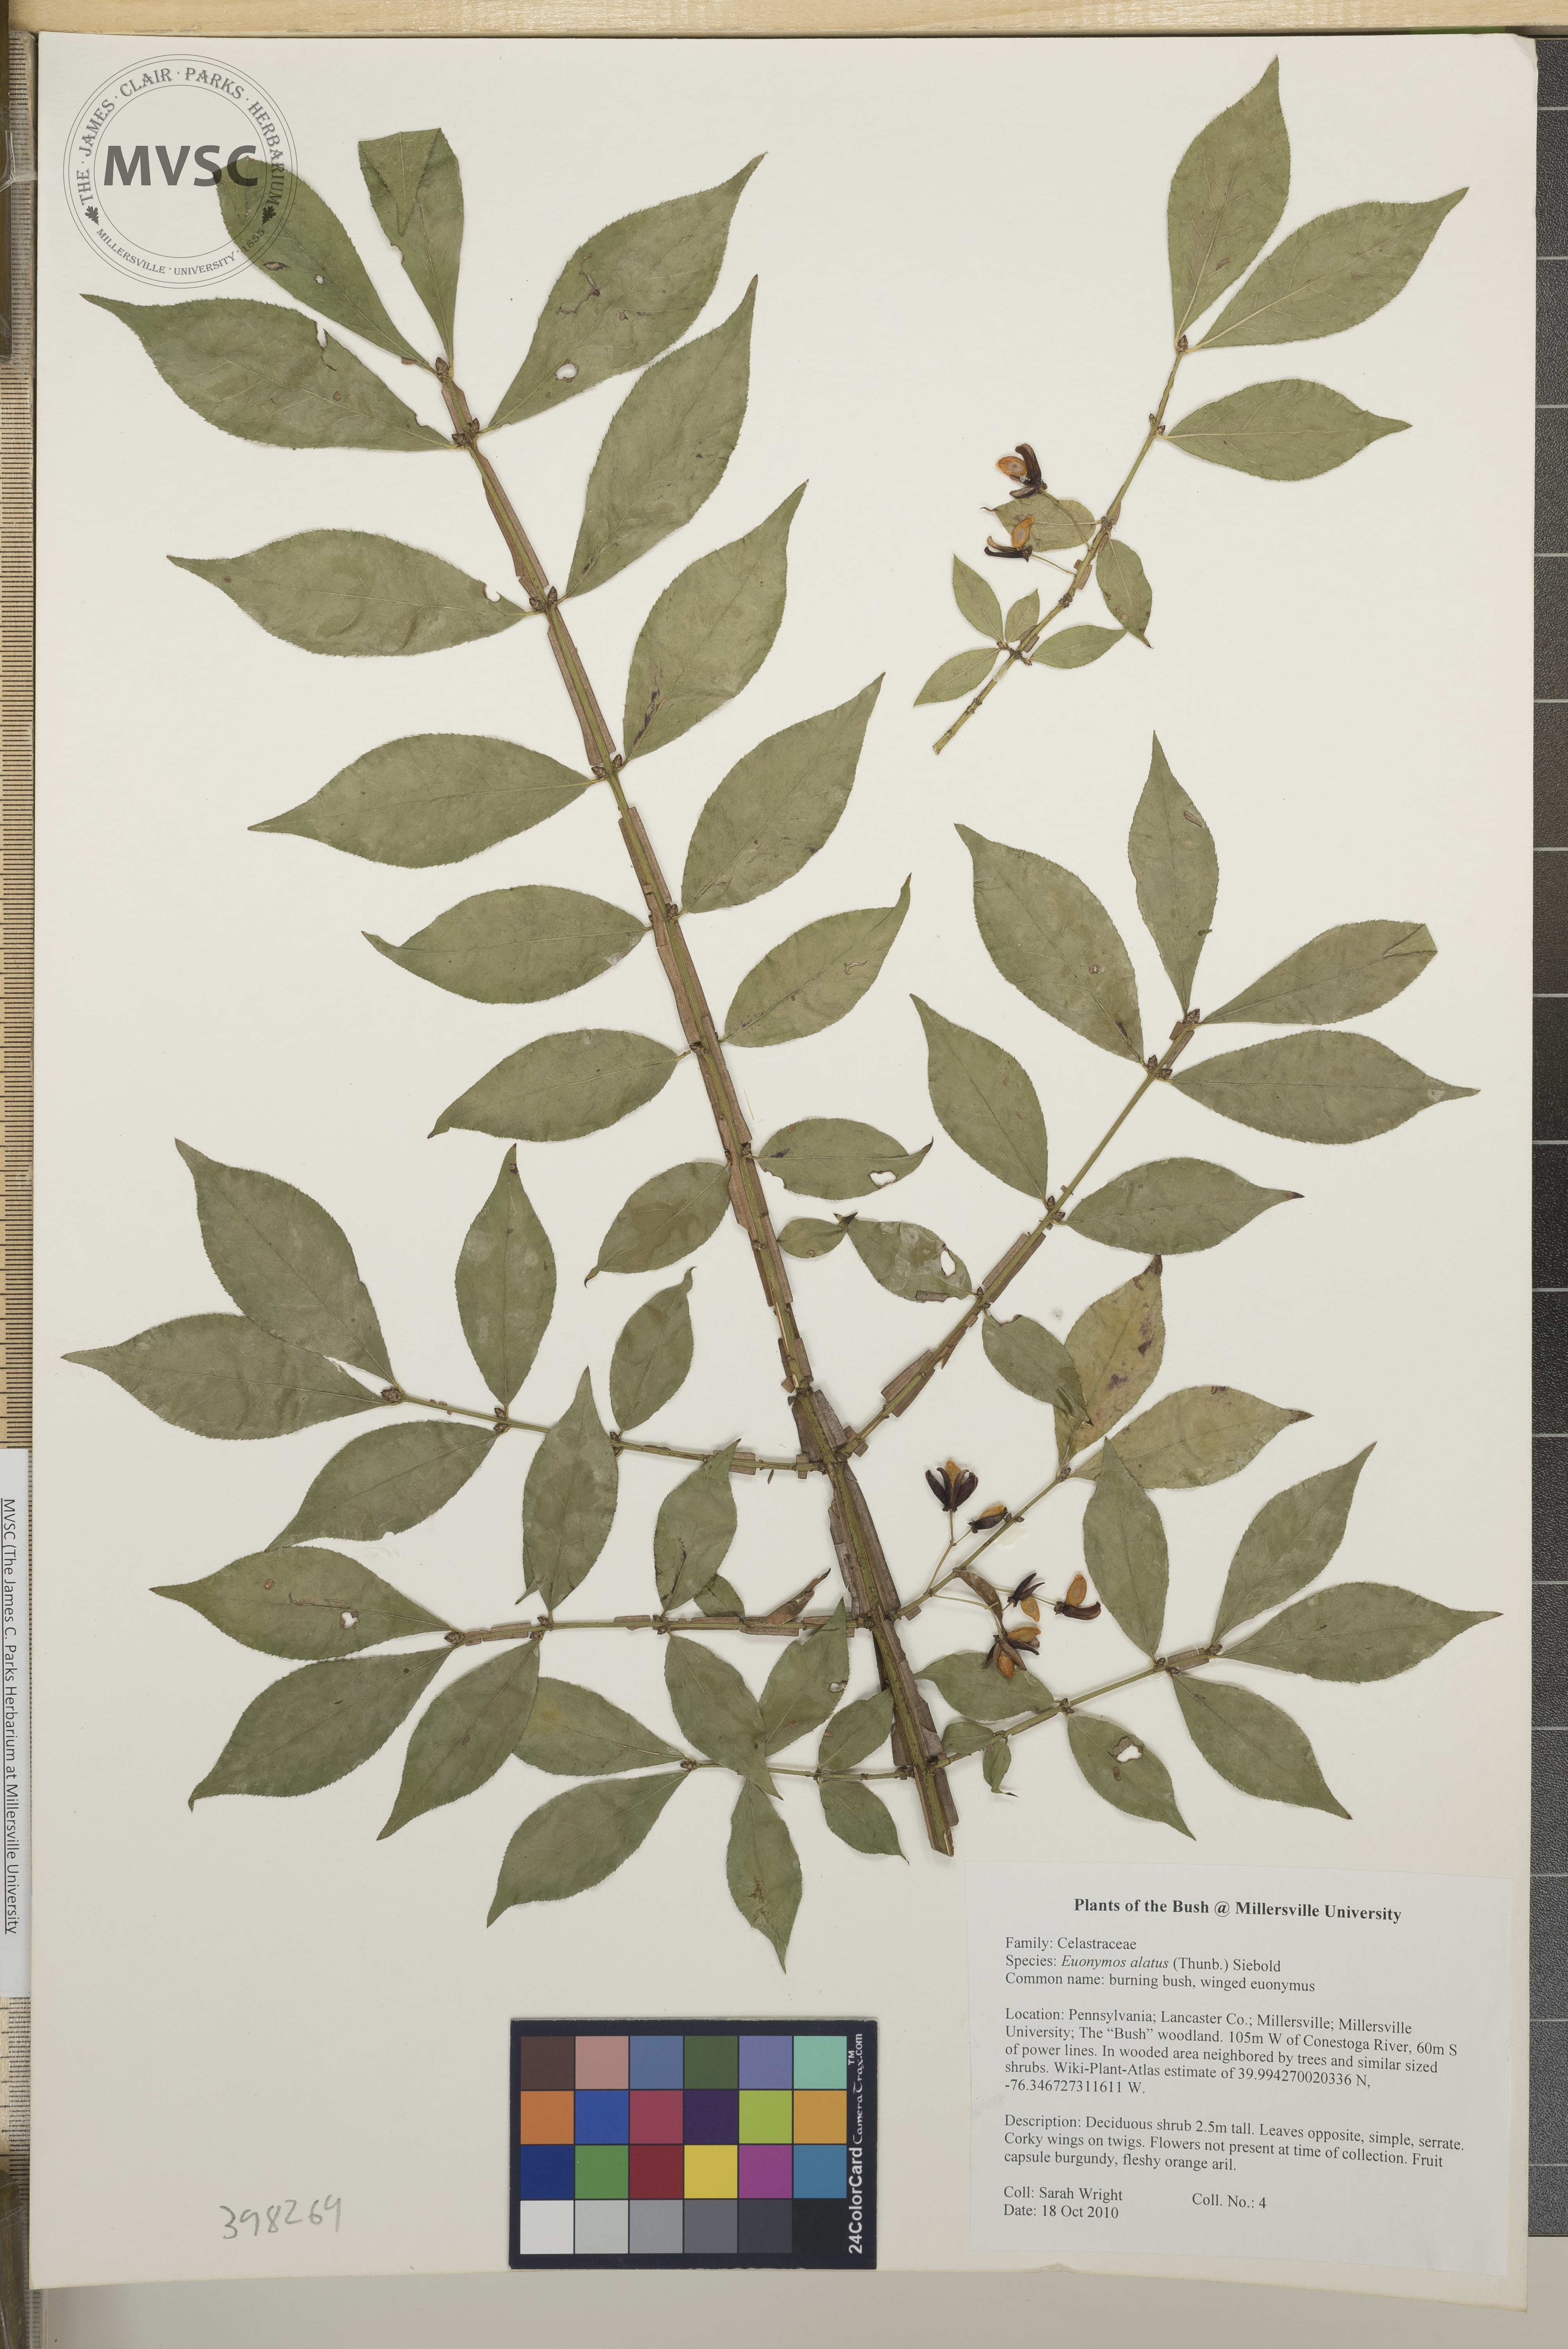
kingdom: Plantae
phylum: Tracheophyta
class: Magnoliopsida
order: Celastrales
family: Celastraceae
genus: Euonymus
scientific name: Euonymus alatus
